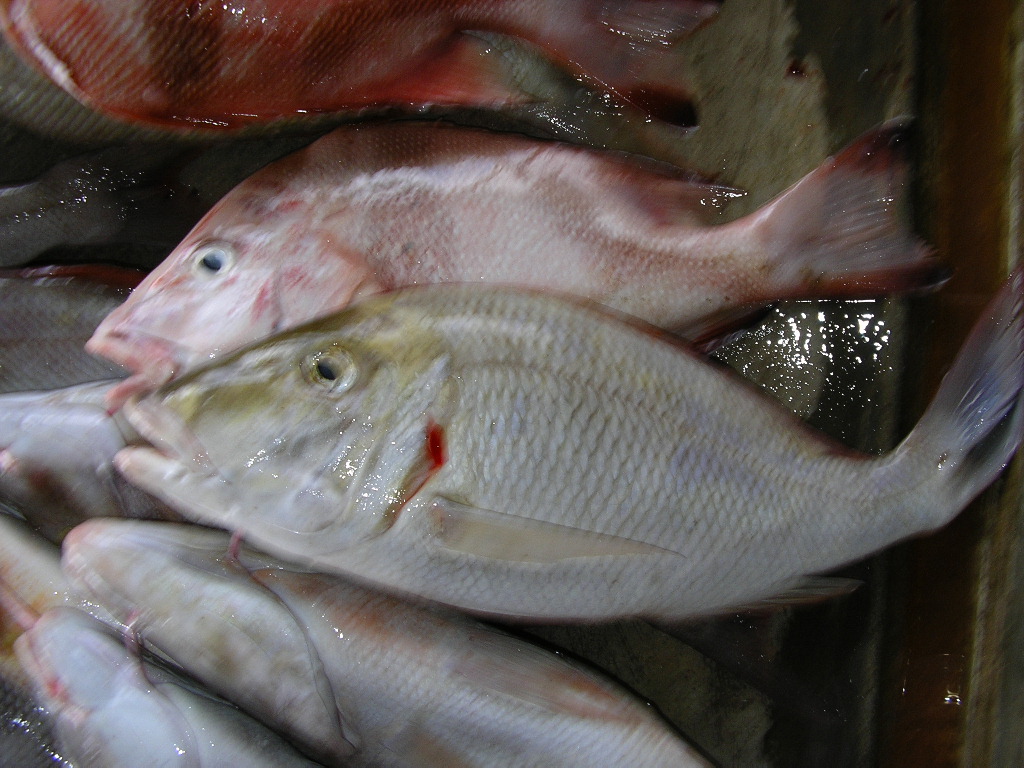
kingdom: Animalia
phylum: Chordata
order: Perciformes
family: Lethrinidae
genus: Lethrinus
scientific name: Lethrinus lentjan
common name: Redspot emperor
